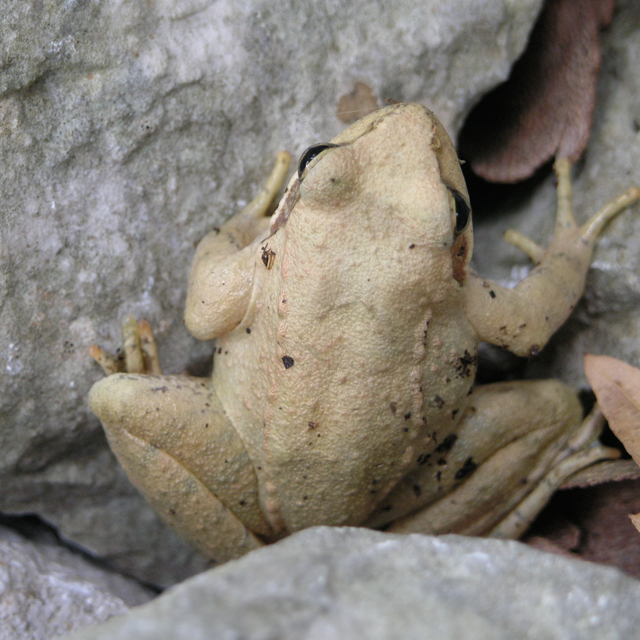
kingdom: Animalia
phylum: Chordata
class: Amphibia
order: Anura
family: Ranidae
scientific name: Ranidae
